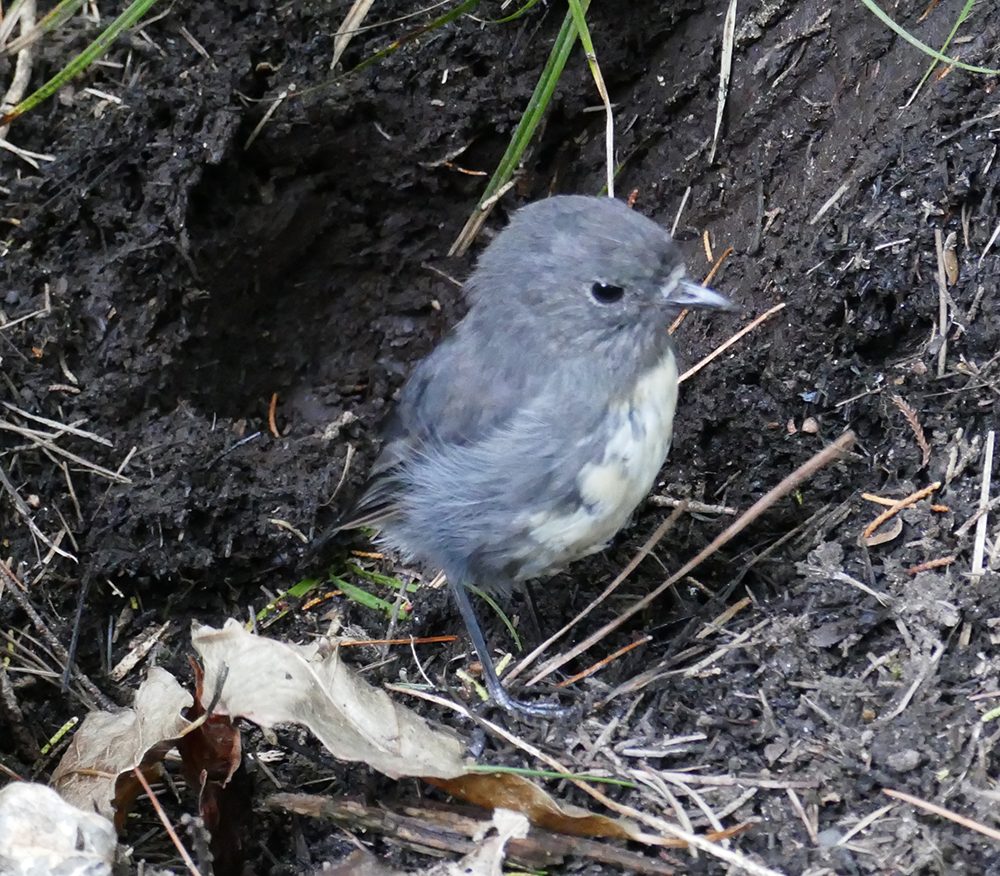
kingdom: Animalia
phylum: Chordata
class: Aves
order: Passeriformes
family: Petroicidae
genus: Petroica
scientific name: Petroica australis
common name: New zealand robin
